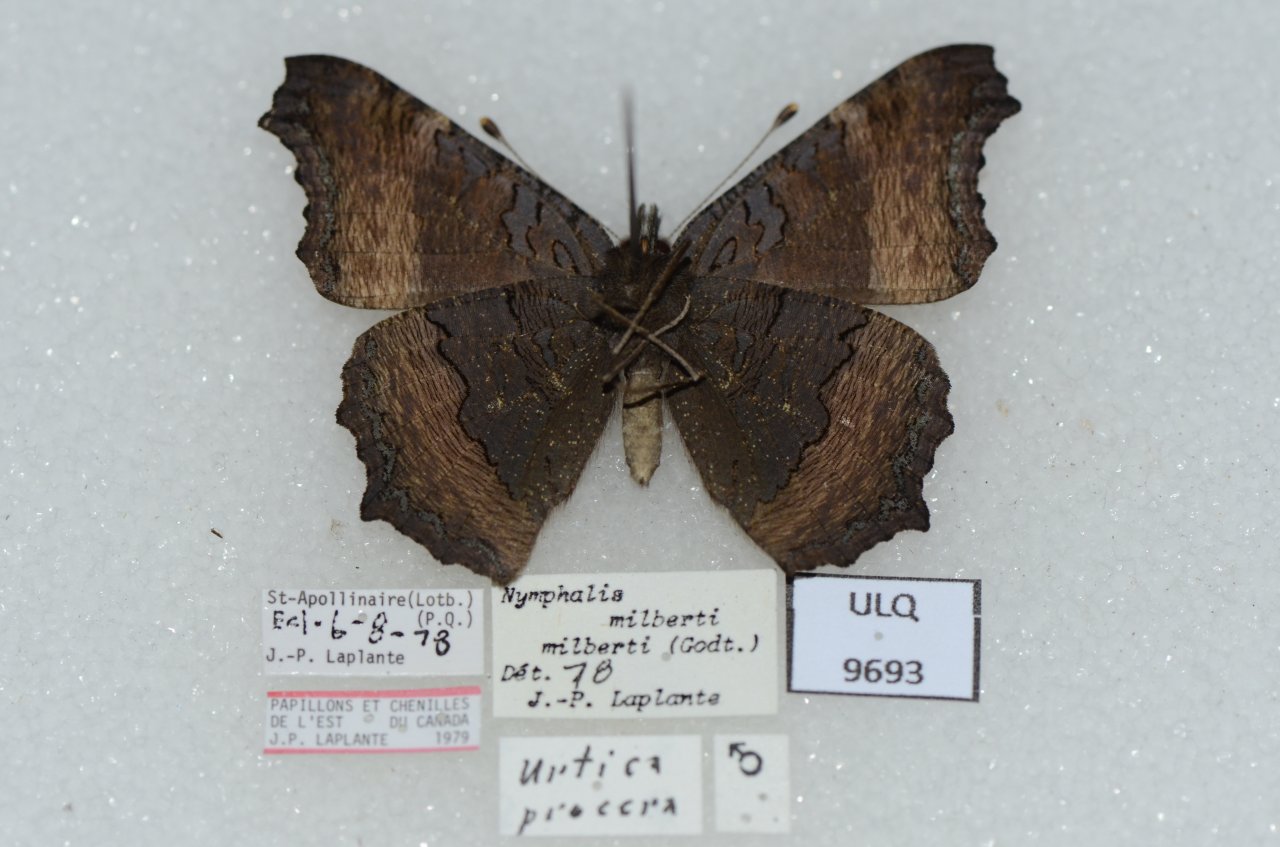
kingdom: Animalia
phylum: Arthropoda
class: Insecta
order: Lepidoptera
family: Nymphalidae
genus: Aglais
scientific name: Aglais milberti
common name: Milbert's Tortoiseshell
